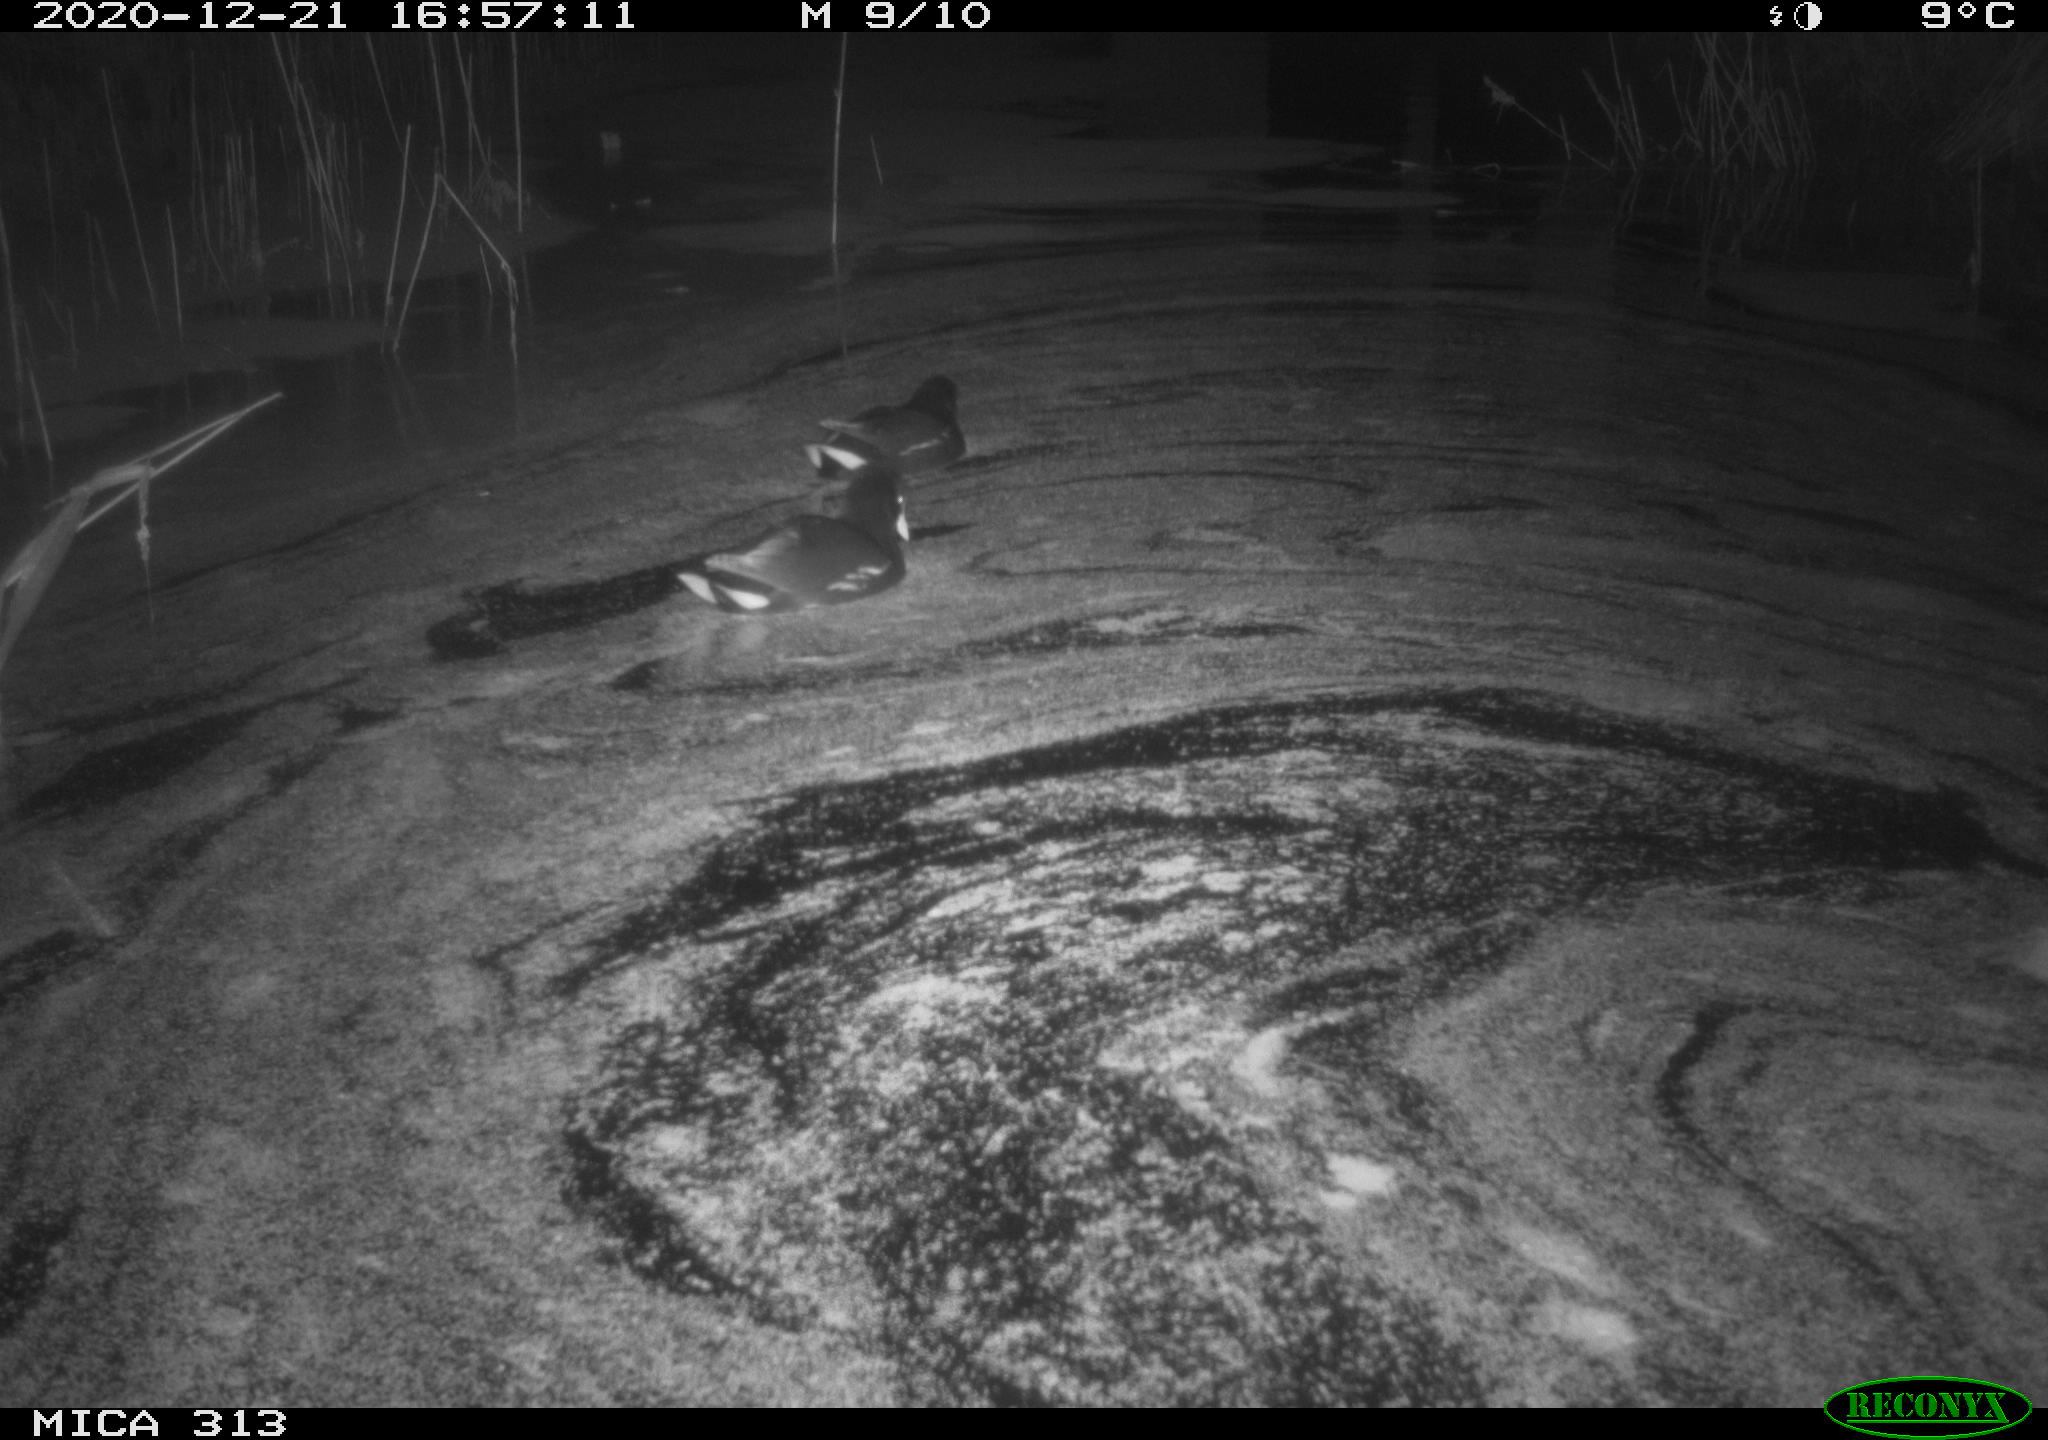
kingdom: Animalia
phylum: Chordata
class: Aves
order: Gruiformes
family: Rallidae
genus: Gallinula
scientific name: Gallinula chloropus
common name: Common moorhen
